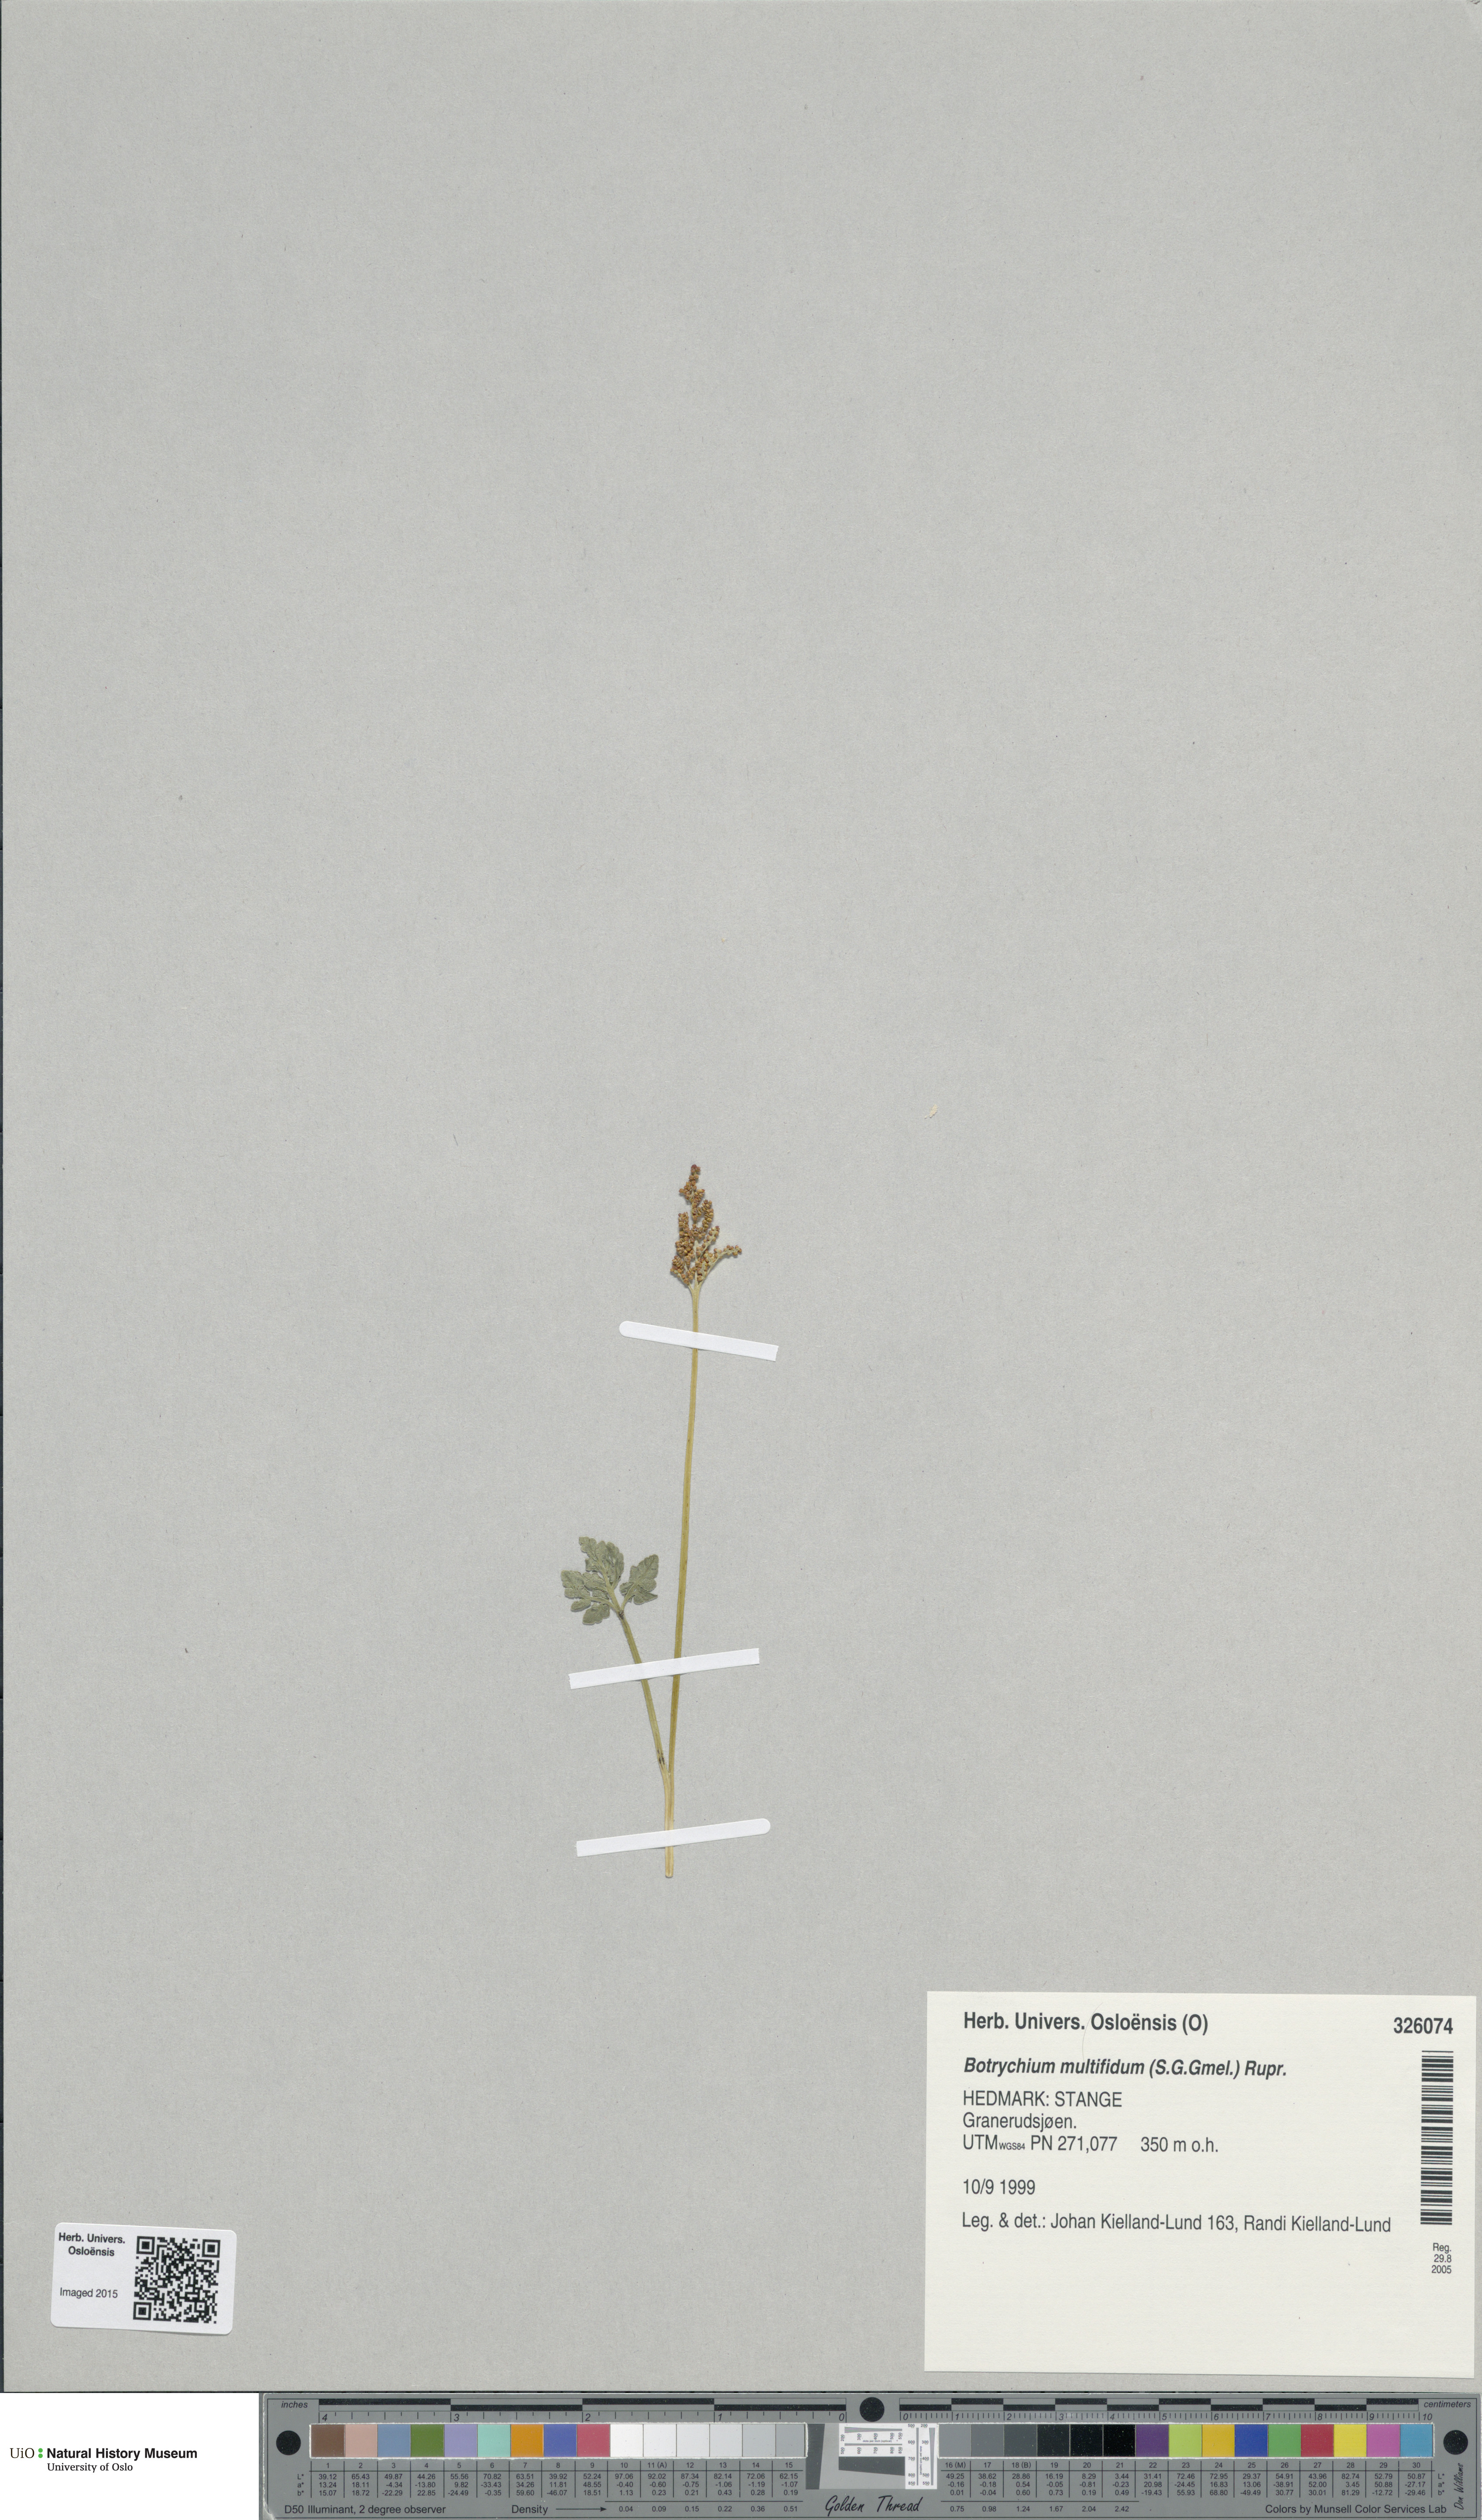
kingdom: Plantae
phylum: Tracheophyta
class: Polypodiopsida
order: Ophioglossales
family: Ophioglossaceae
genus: Sceptridium
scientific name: Sceptridium multifidum
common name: Leathery grape fern
